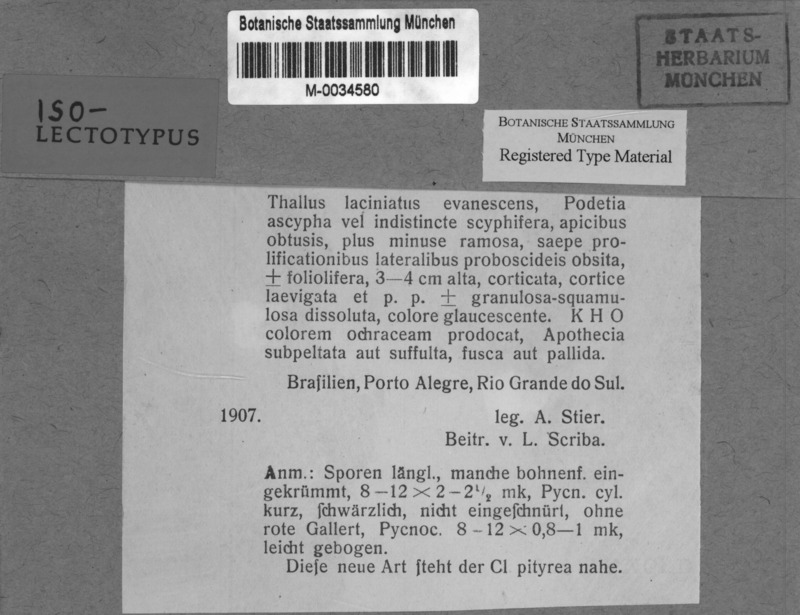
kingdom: Fungi
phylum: Ascomycota
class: Lecanoromycetes
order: Lecanorales
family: Cladoniaceae
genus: Cladonia
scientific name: Cladonia ochracea
